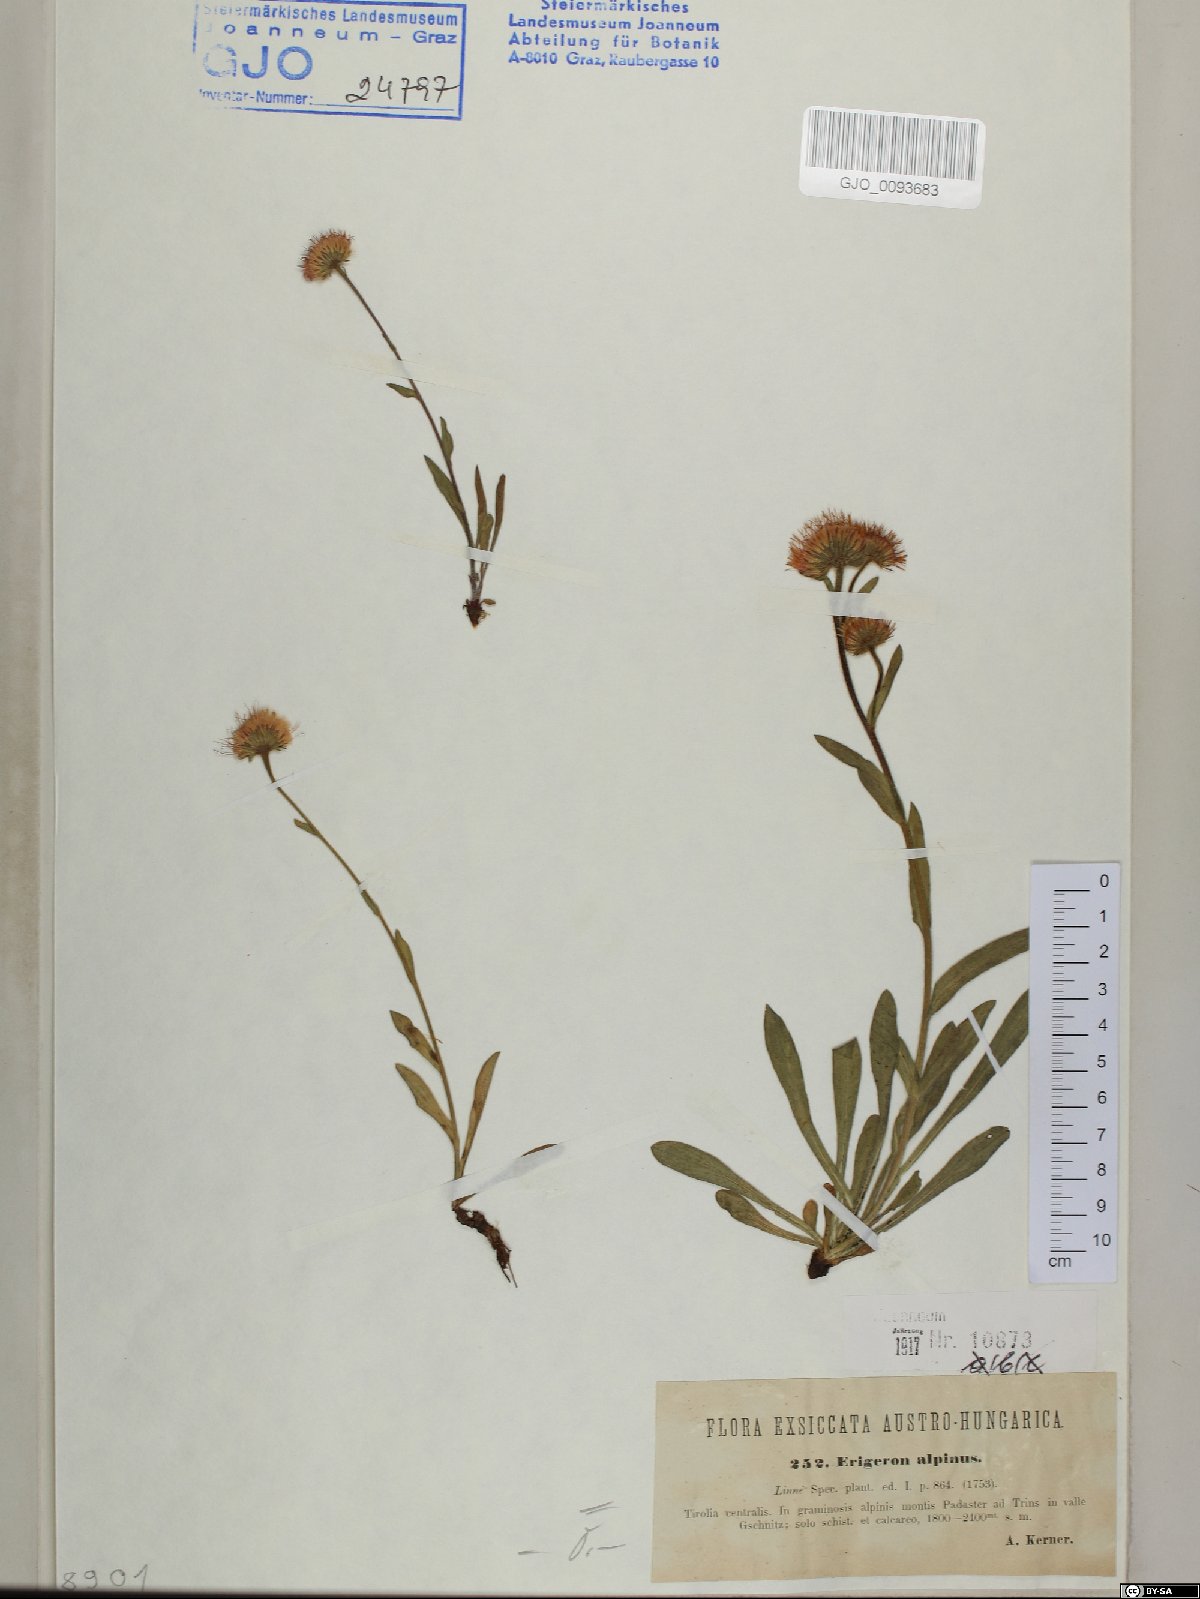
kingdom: Plantae
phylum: Tracheophyta
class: Magnoliopsida
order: Asterales
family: Asteraceae
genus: Erigeron
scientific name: Erigeron alpinus
